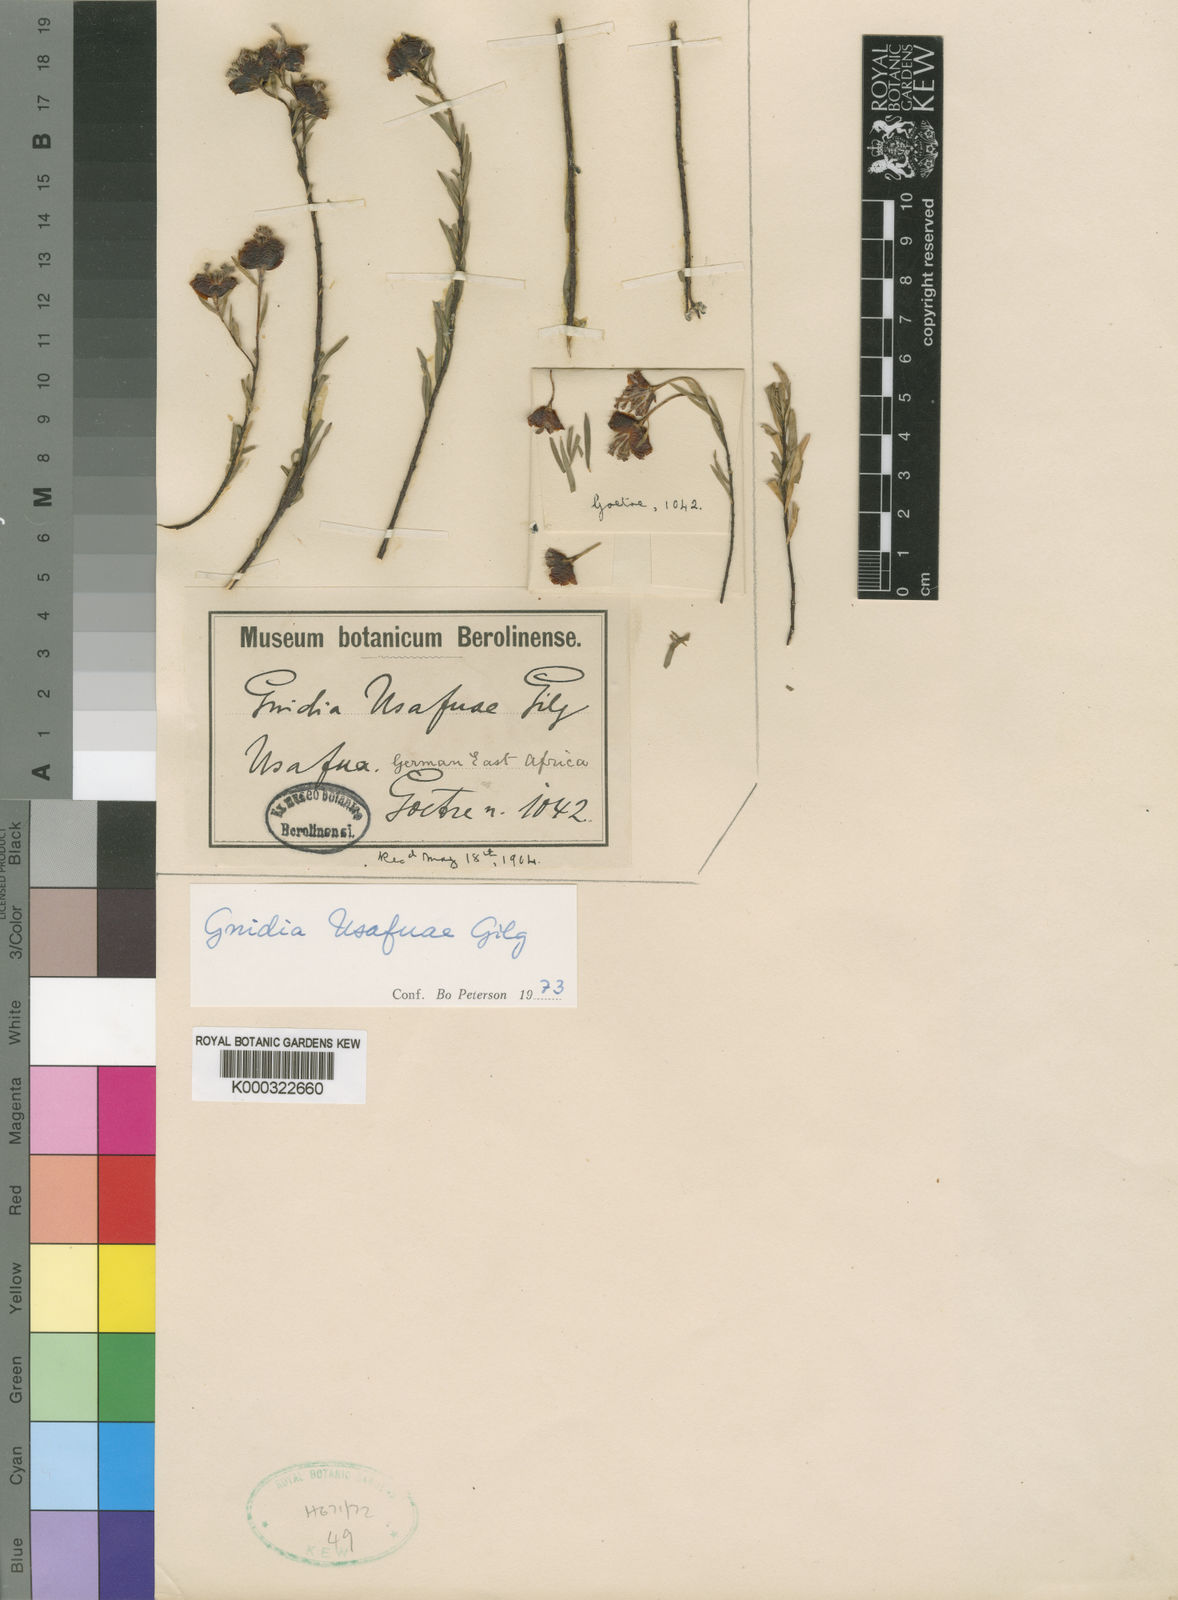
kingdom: Plantae
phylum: Tracheophyta
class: Magnoliopsida
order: Malvales
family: Thymelaeaceae
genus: Gnidia
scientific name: Gnidia usafuae
